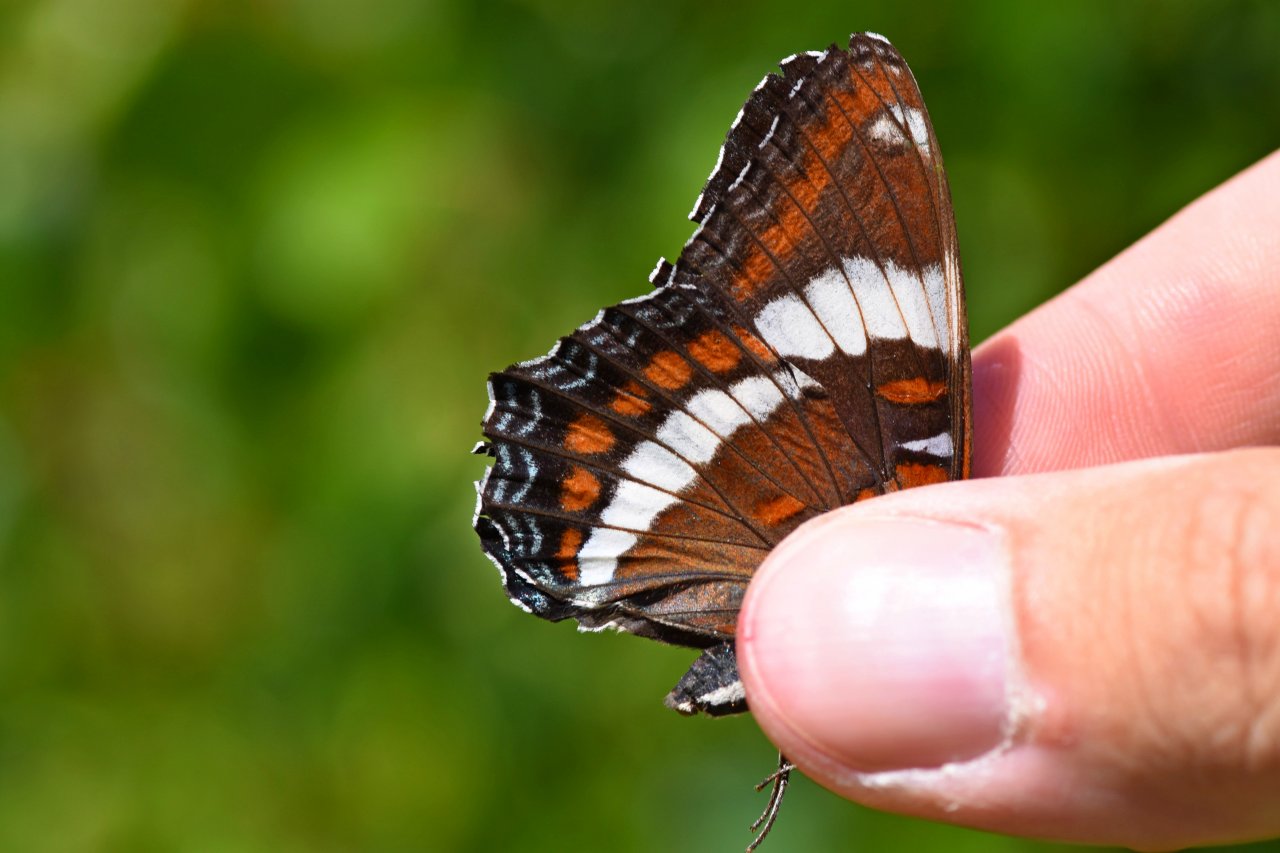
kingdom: Animalia
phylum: Arthropoda
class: Insecta
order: Lepidoptera
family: Nymphalidae
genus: Limenitis
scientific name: Limenitis arthemis
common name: Red-spotted Admiral
